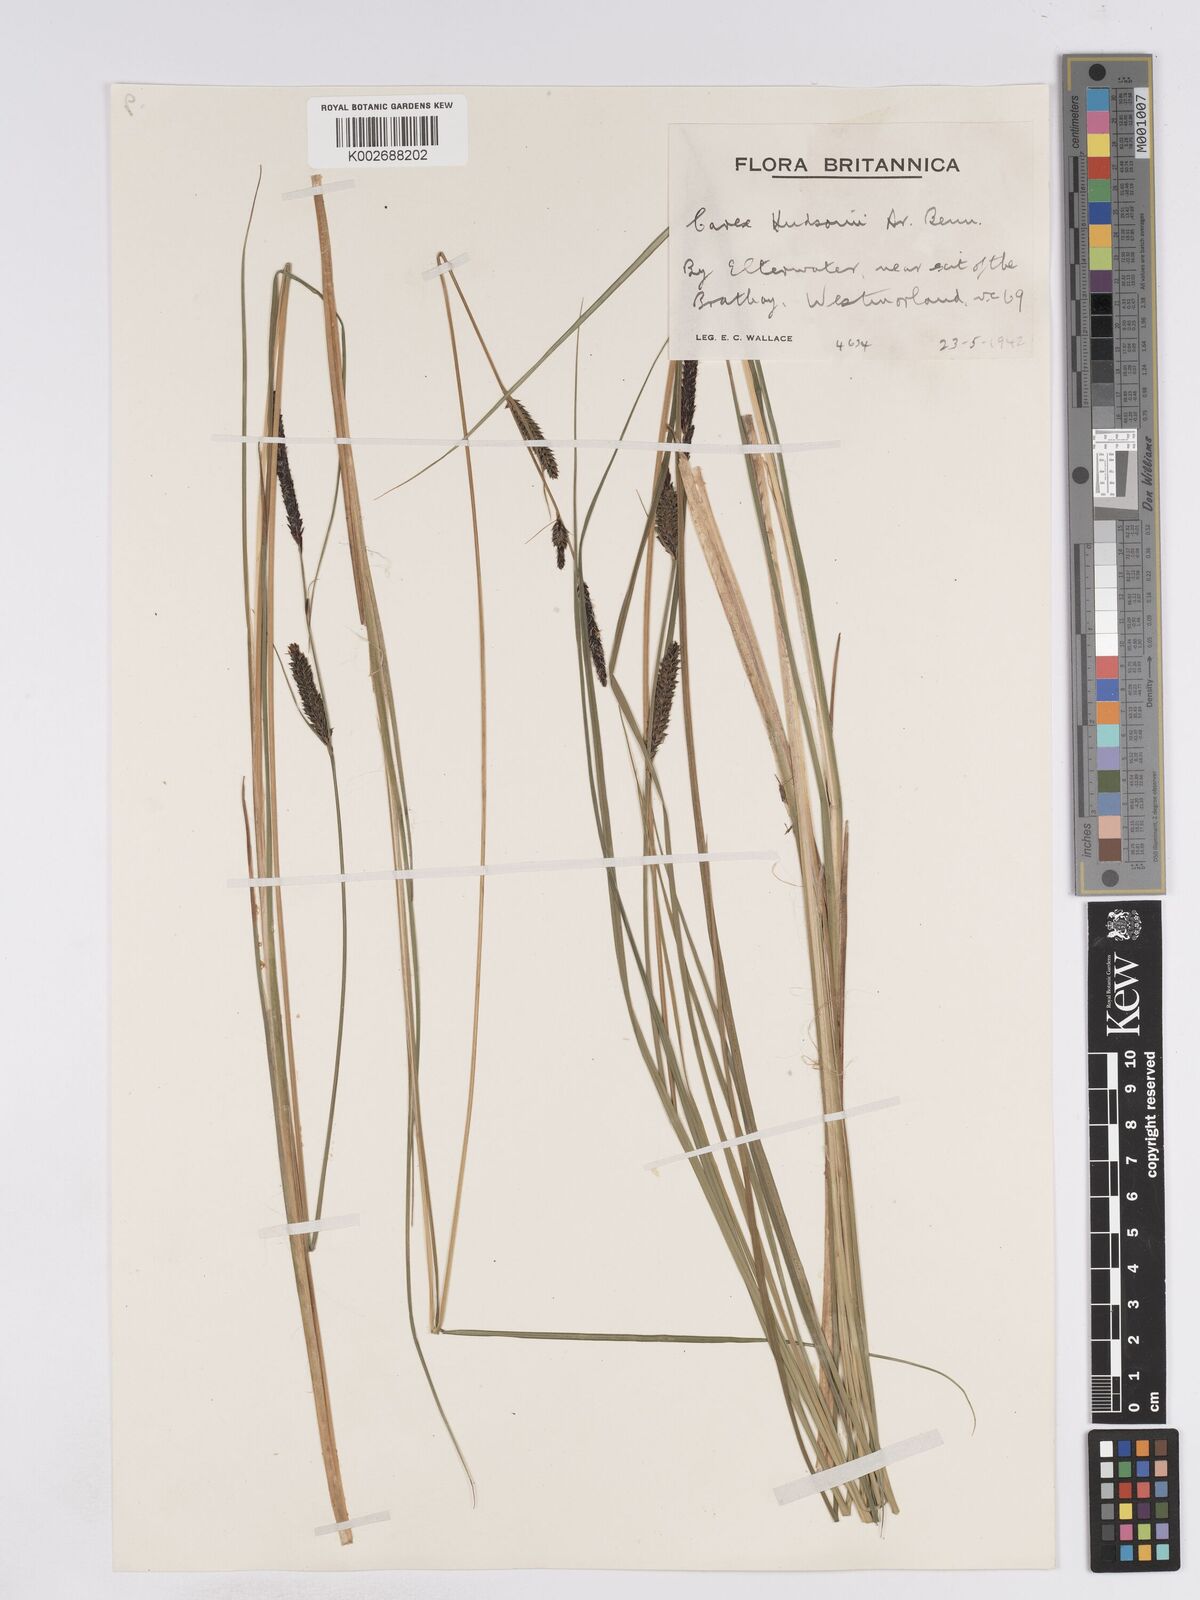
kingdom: Plantae
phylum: Tracheophyta
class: Liliopsida
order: Poales
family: Cyperaceae
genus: Carex
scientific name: Carex elata
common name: Tufted sedge
